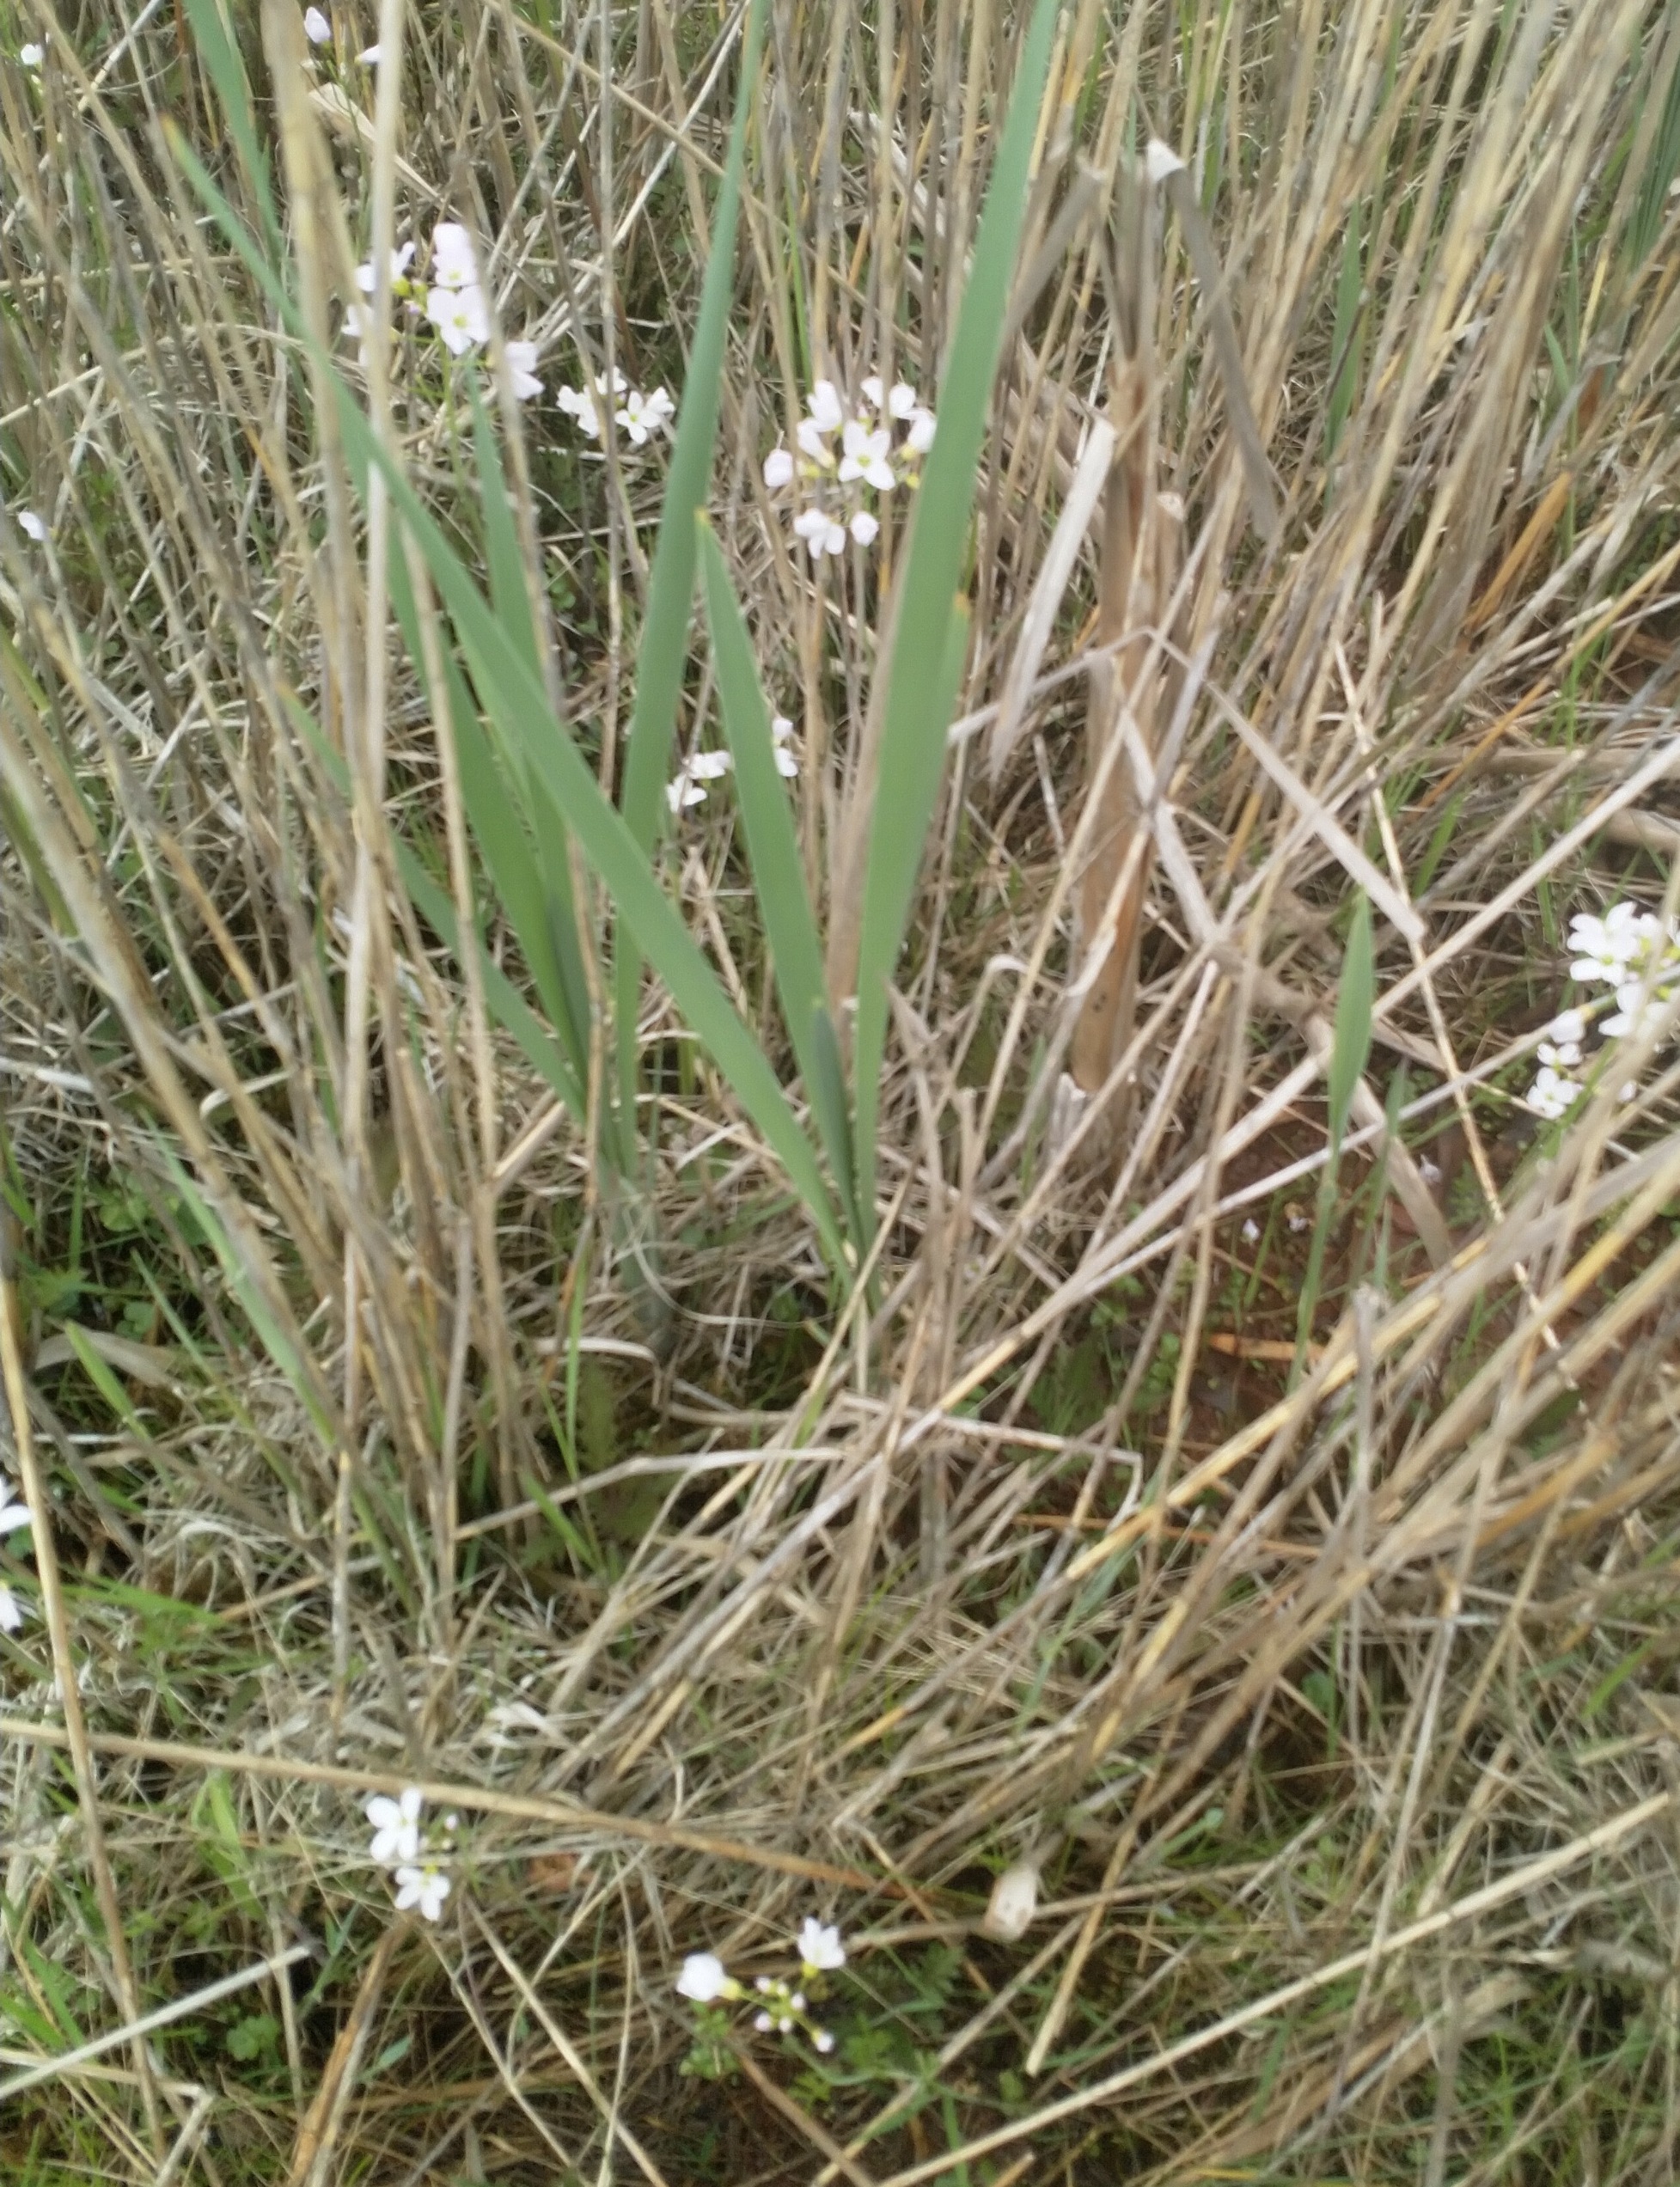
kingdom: Plantae
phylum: Tracheophyta
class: Magnoliopsida
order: Brassicales
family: Brassicaceae
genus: Cardamine
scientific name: Cardamine pratensis
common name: Engkarse
